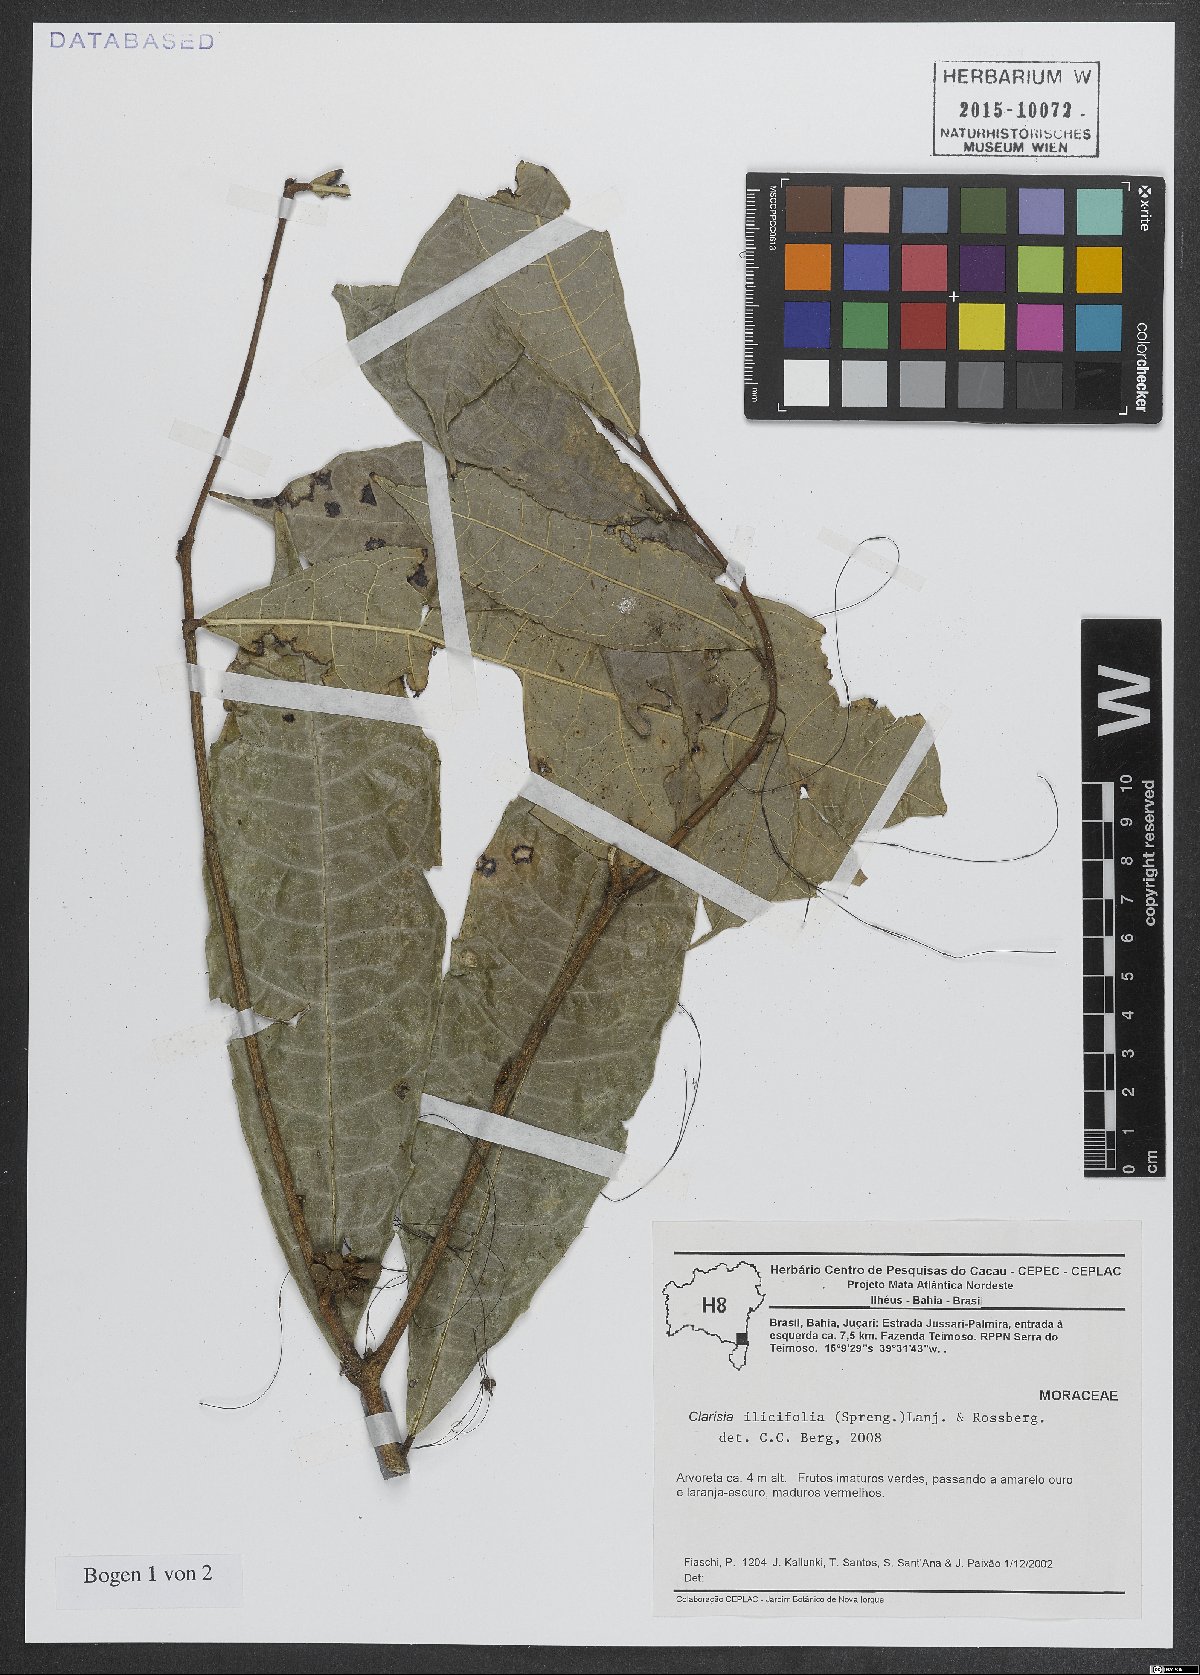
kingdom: Plantae
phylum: Tracheophyta
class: Magnoliopsida
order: Rosales
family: Moraceae
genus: Clarisia
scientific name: Clarisia ilicifolia
